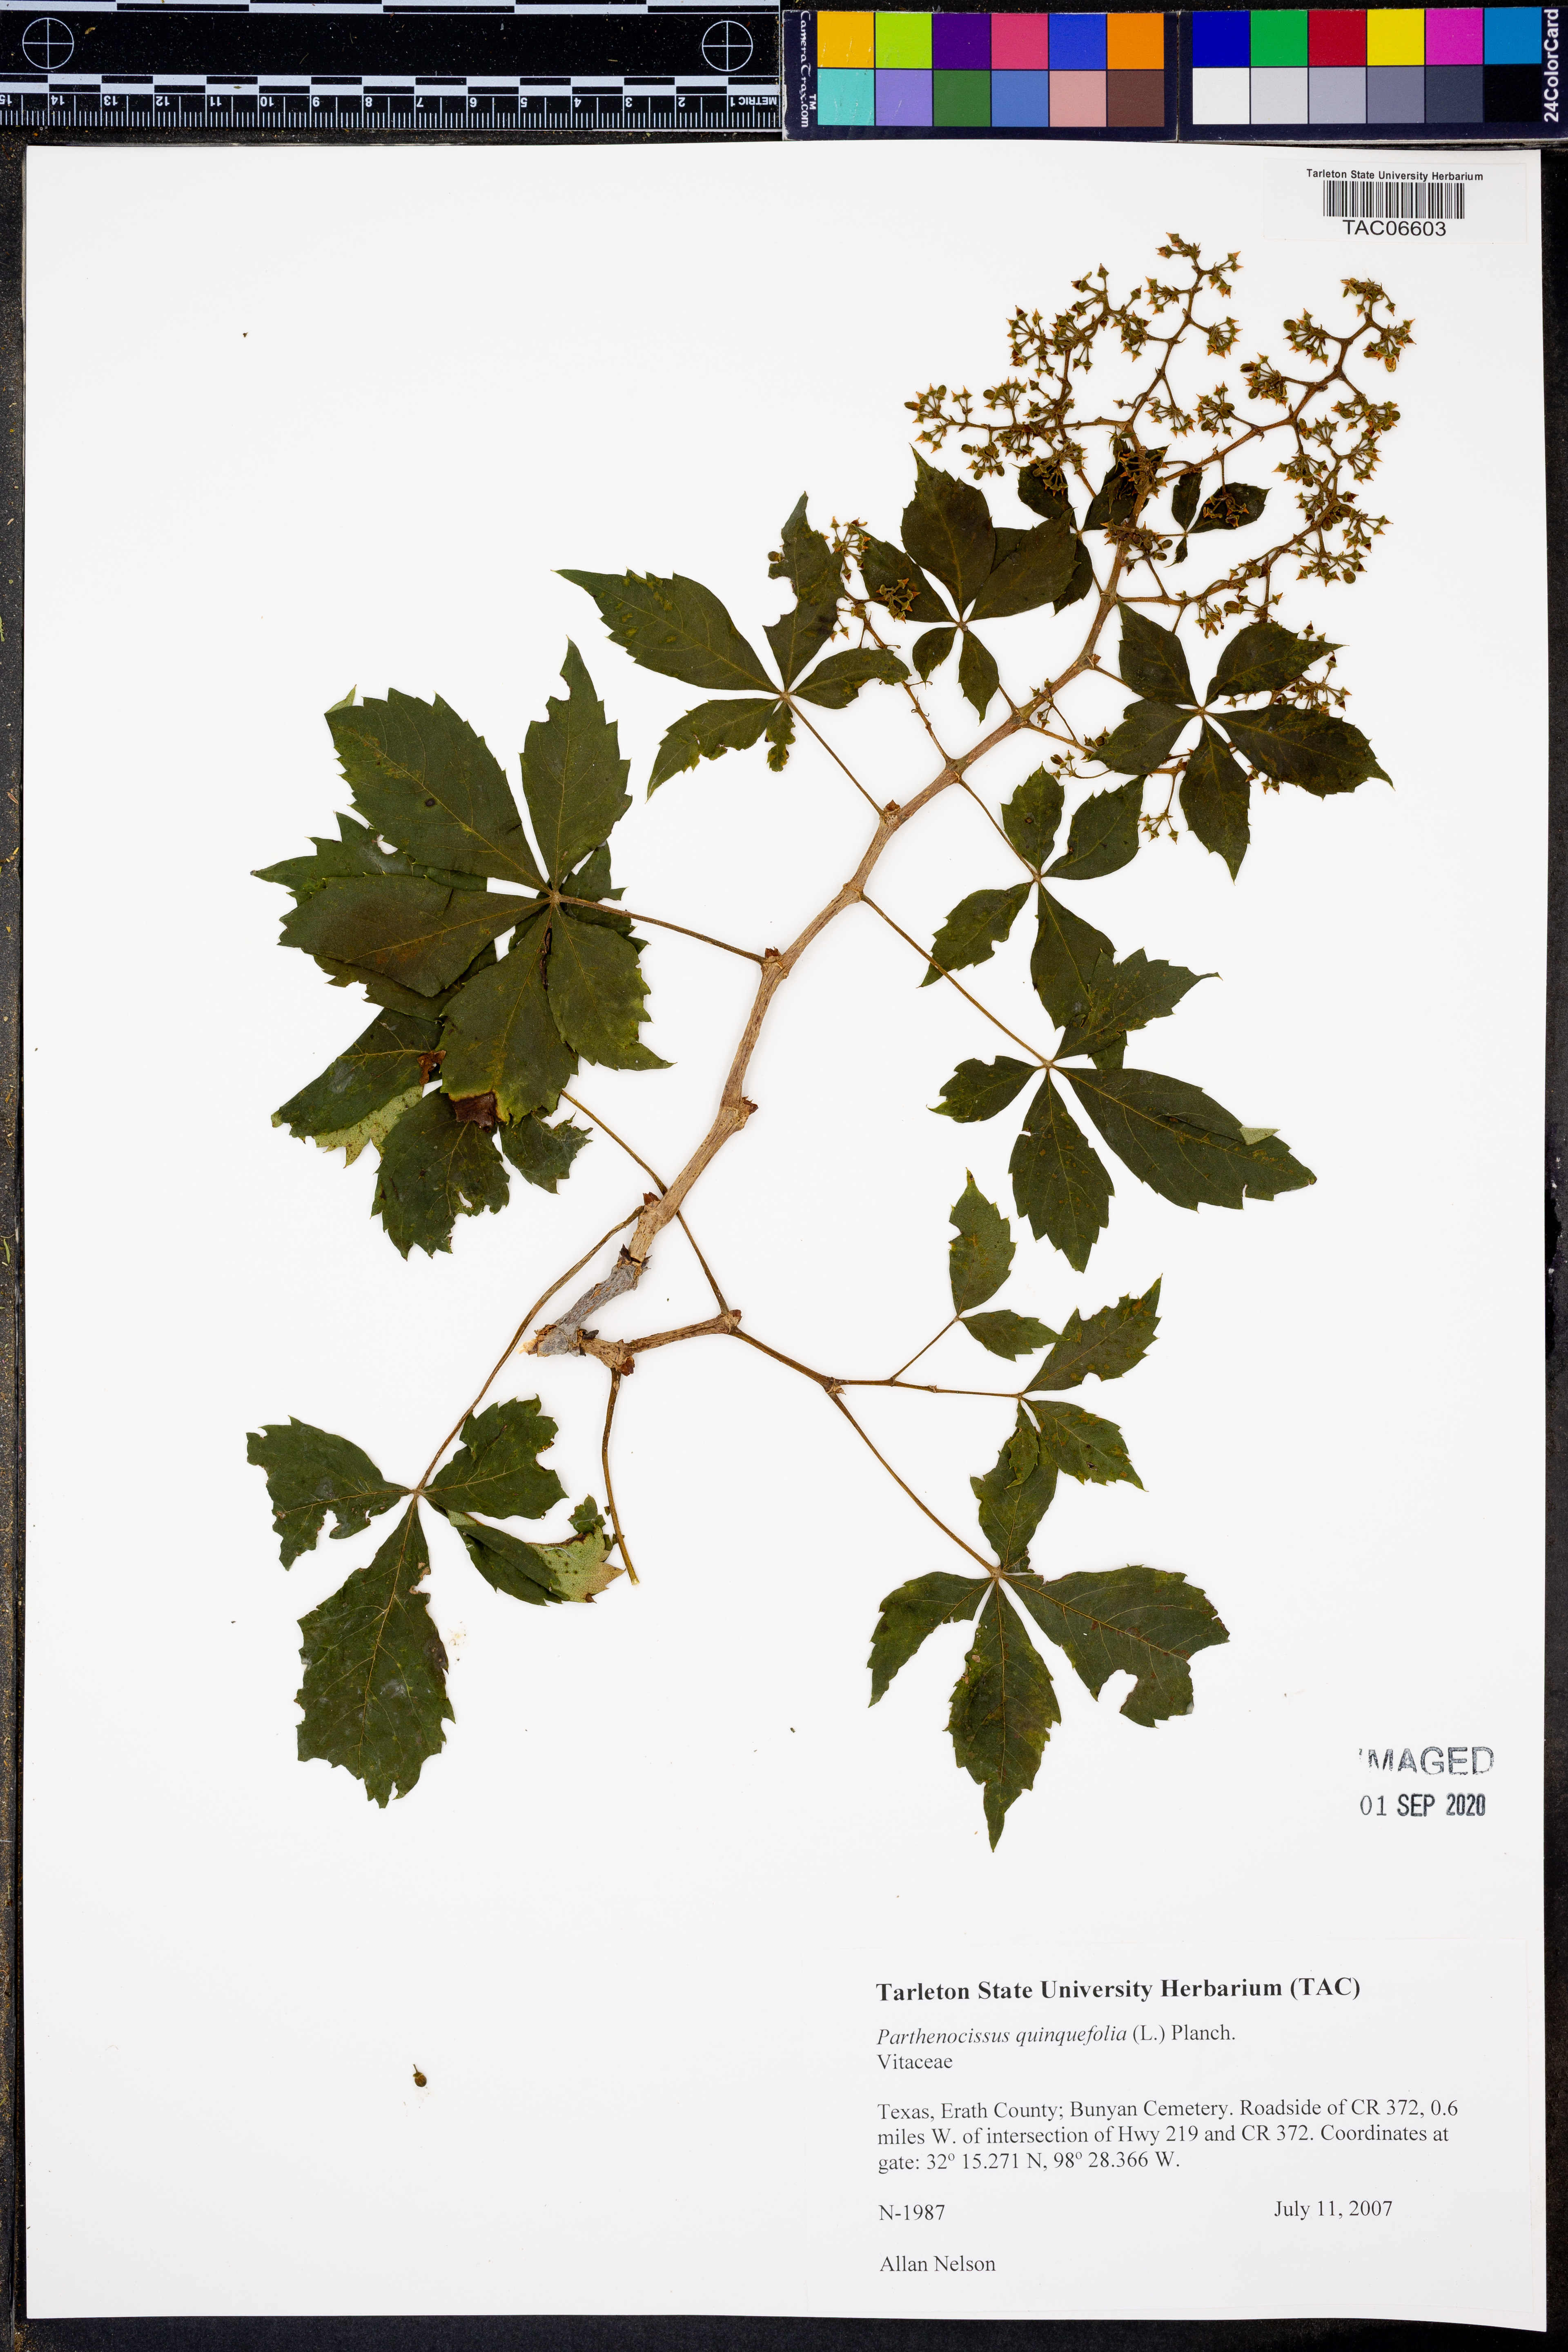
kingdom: Plantae
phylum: Tracheophyta
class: Magnoliopsida
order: Vitales
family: Vitaceae
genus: Parthenocissus
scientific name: Parthenocissus quinquefolia
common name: Virginia-creeper
